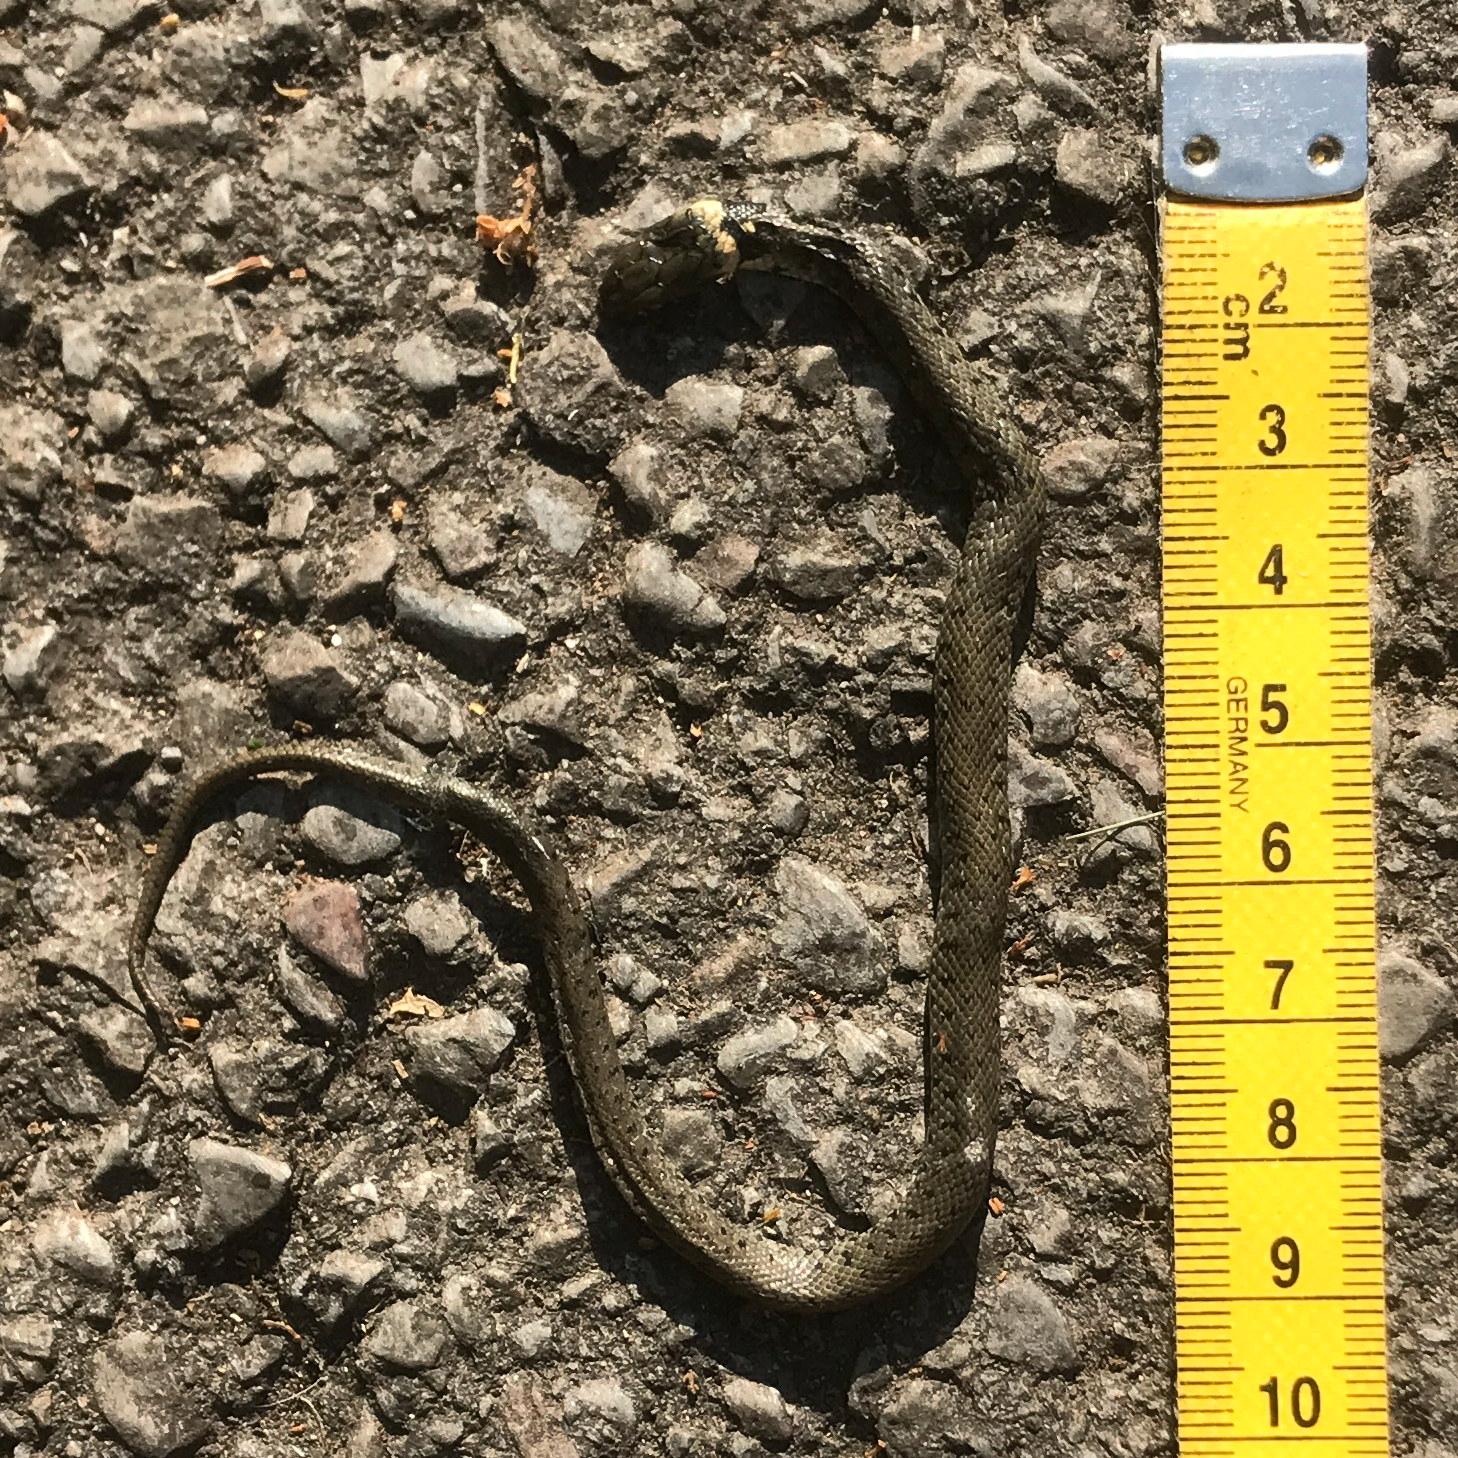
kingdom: Animalia
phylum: Chordata
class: Squamata
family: Colubridae
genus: Natrix
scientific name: Natrix natrix
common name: Grass snake
